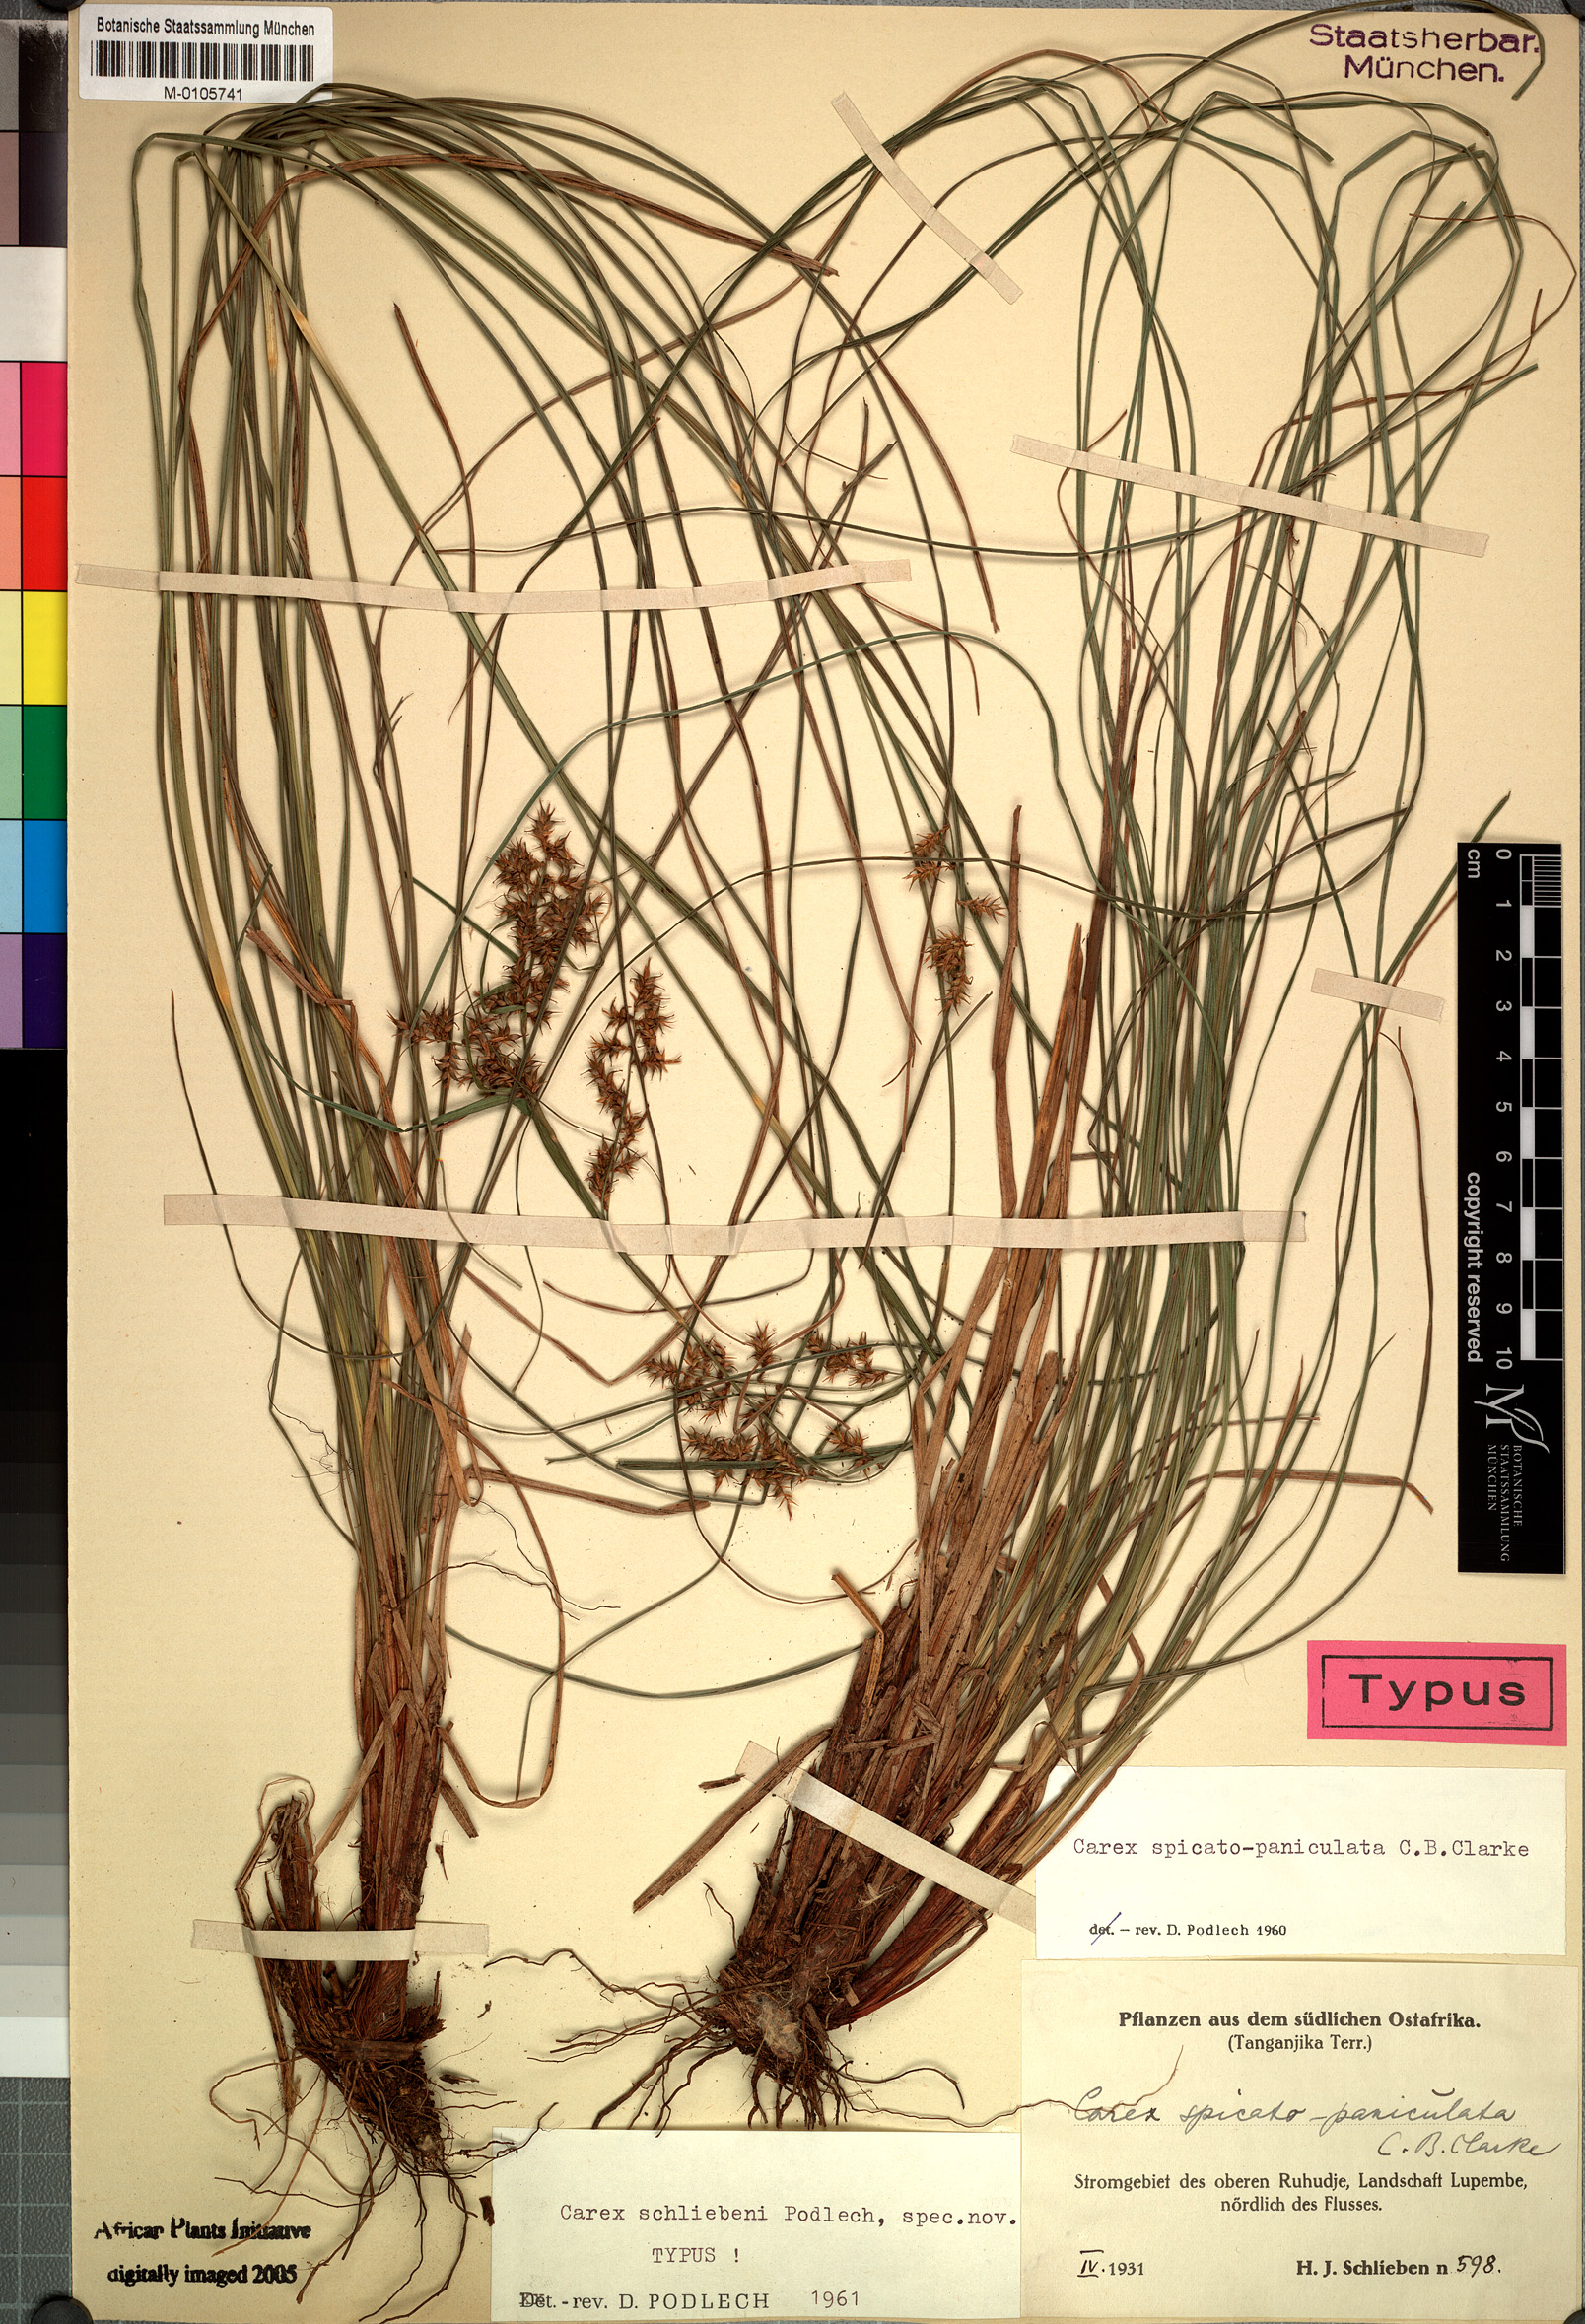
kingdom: Plantae
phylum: Tracheophyta
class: Liliopsida
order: Poales
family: Cyperaceae
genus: Carex
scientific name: Carex spicatopaniculata
